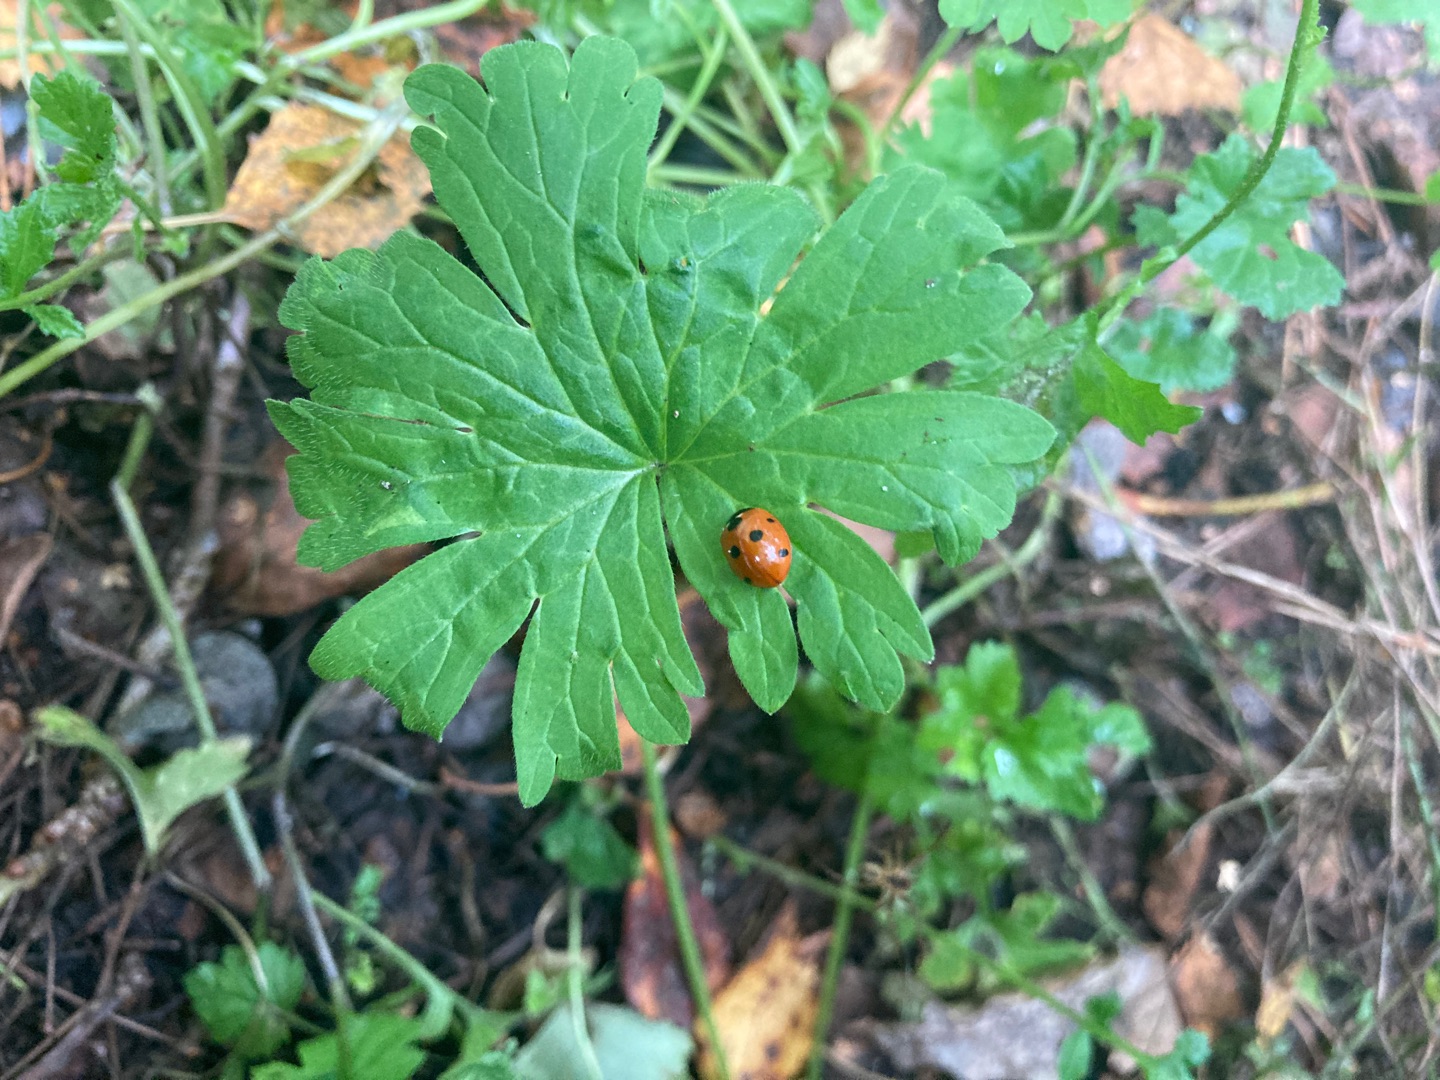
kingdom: Animalia
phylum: Arthropoda
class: Insecta
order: Coleoptera
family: Coccinellidae
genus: Coccinella
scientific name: Coccinella septempunctata
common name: Syvplettet mariehøne
